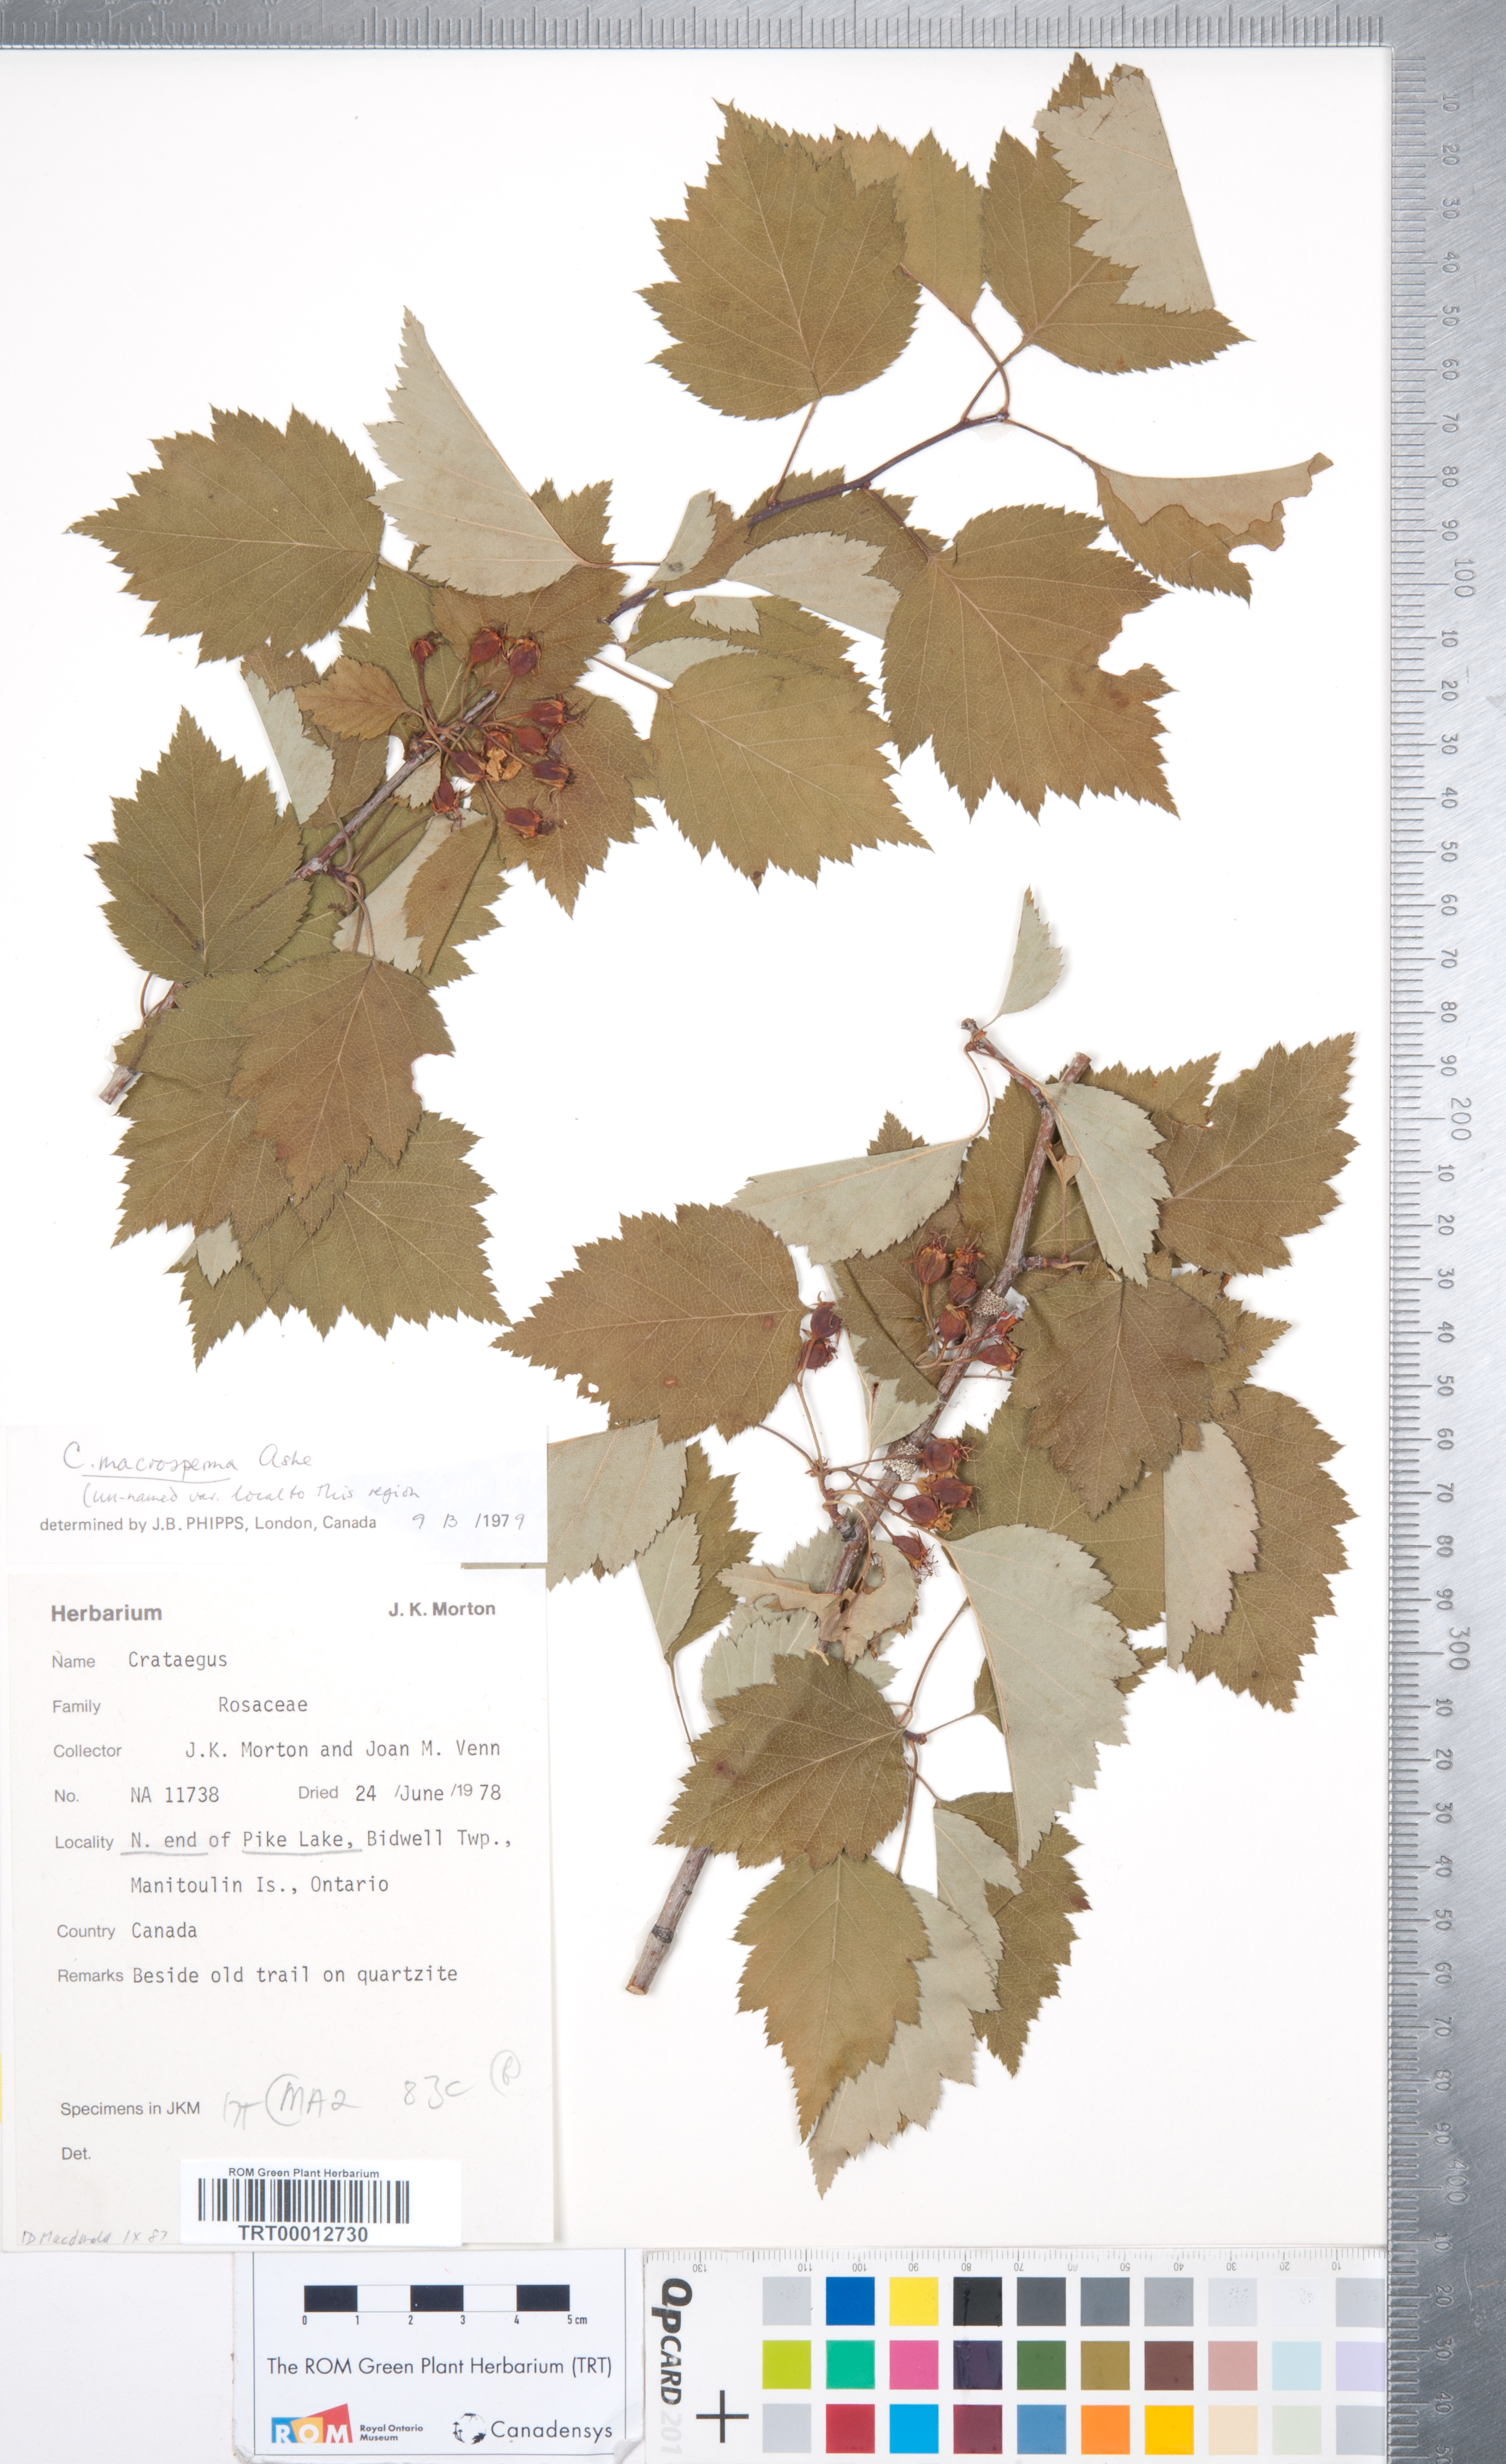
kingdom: Plantae
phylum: Tracheophyta
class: Magnoliopsida
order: Rosales
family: Rosaceae
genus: Crataegus
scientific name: Crataegus macrosperma
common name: Variable hawthorn
